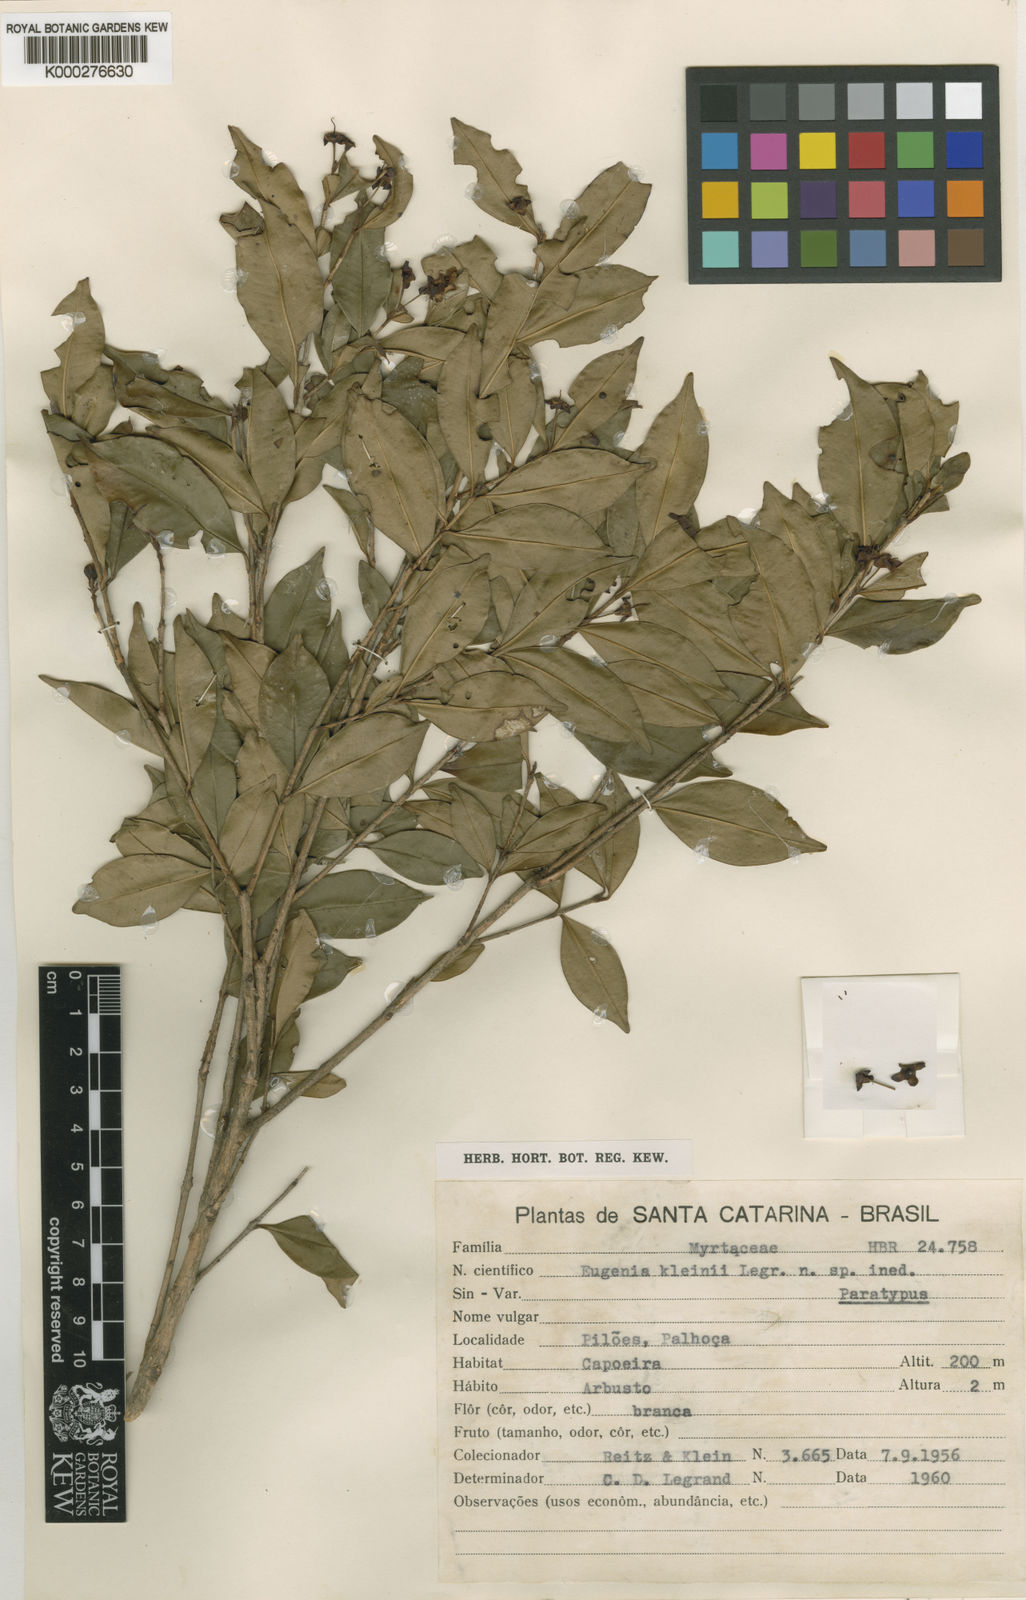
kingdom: Plantae
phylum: Tracheophyta
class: Magnoliopsida
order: Myrtales
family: Myrtaceae
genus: Eugenia
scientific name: Eugenia kleinii
